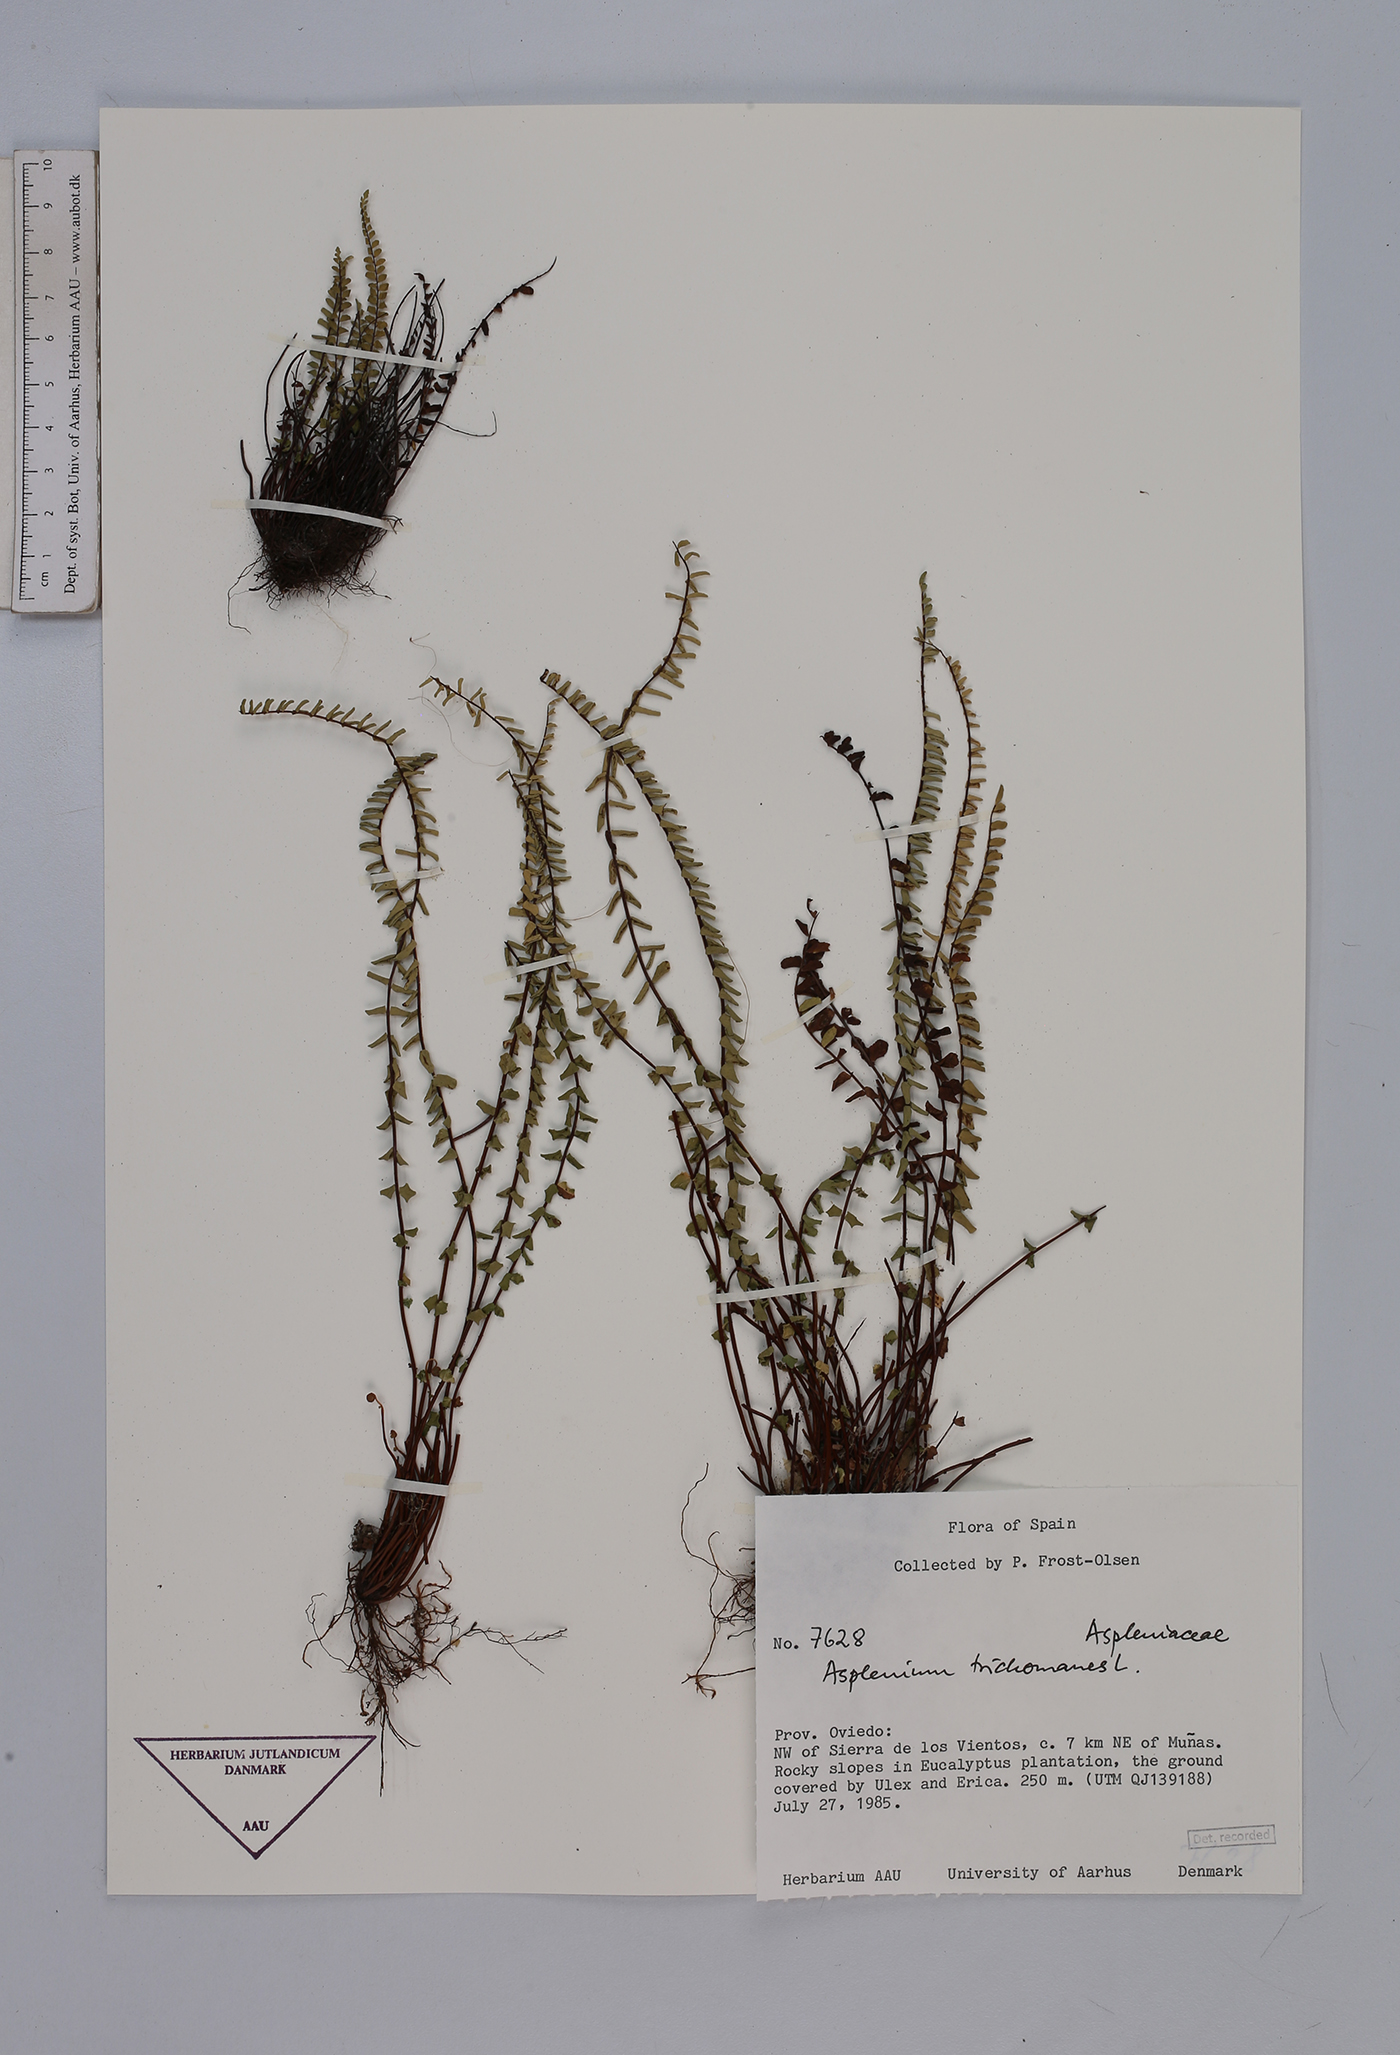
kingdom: Plantae
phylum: Tracheophyta
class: Polypodiopsida
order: Polypodiales
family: Aspleniaceae
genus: Asplenium
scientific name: Asplenium trichomanes
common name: Maidenhair spleenwort
